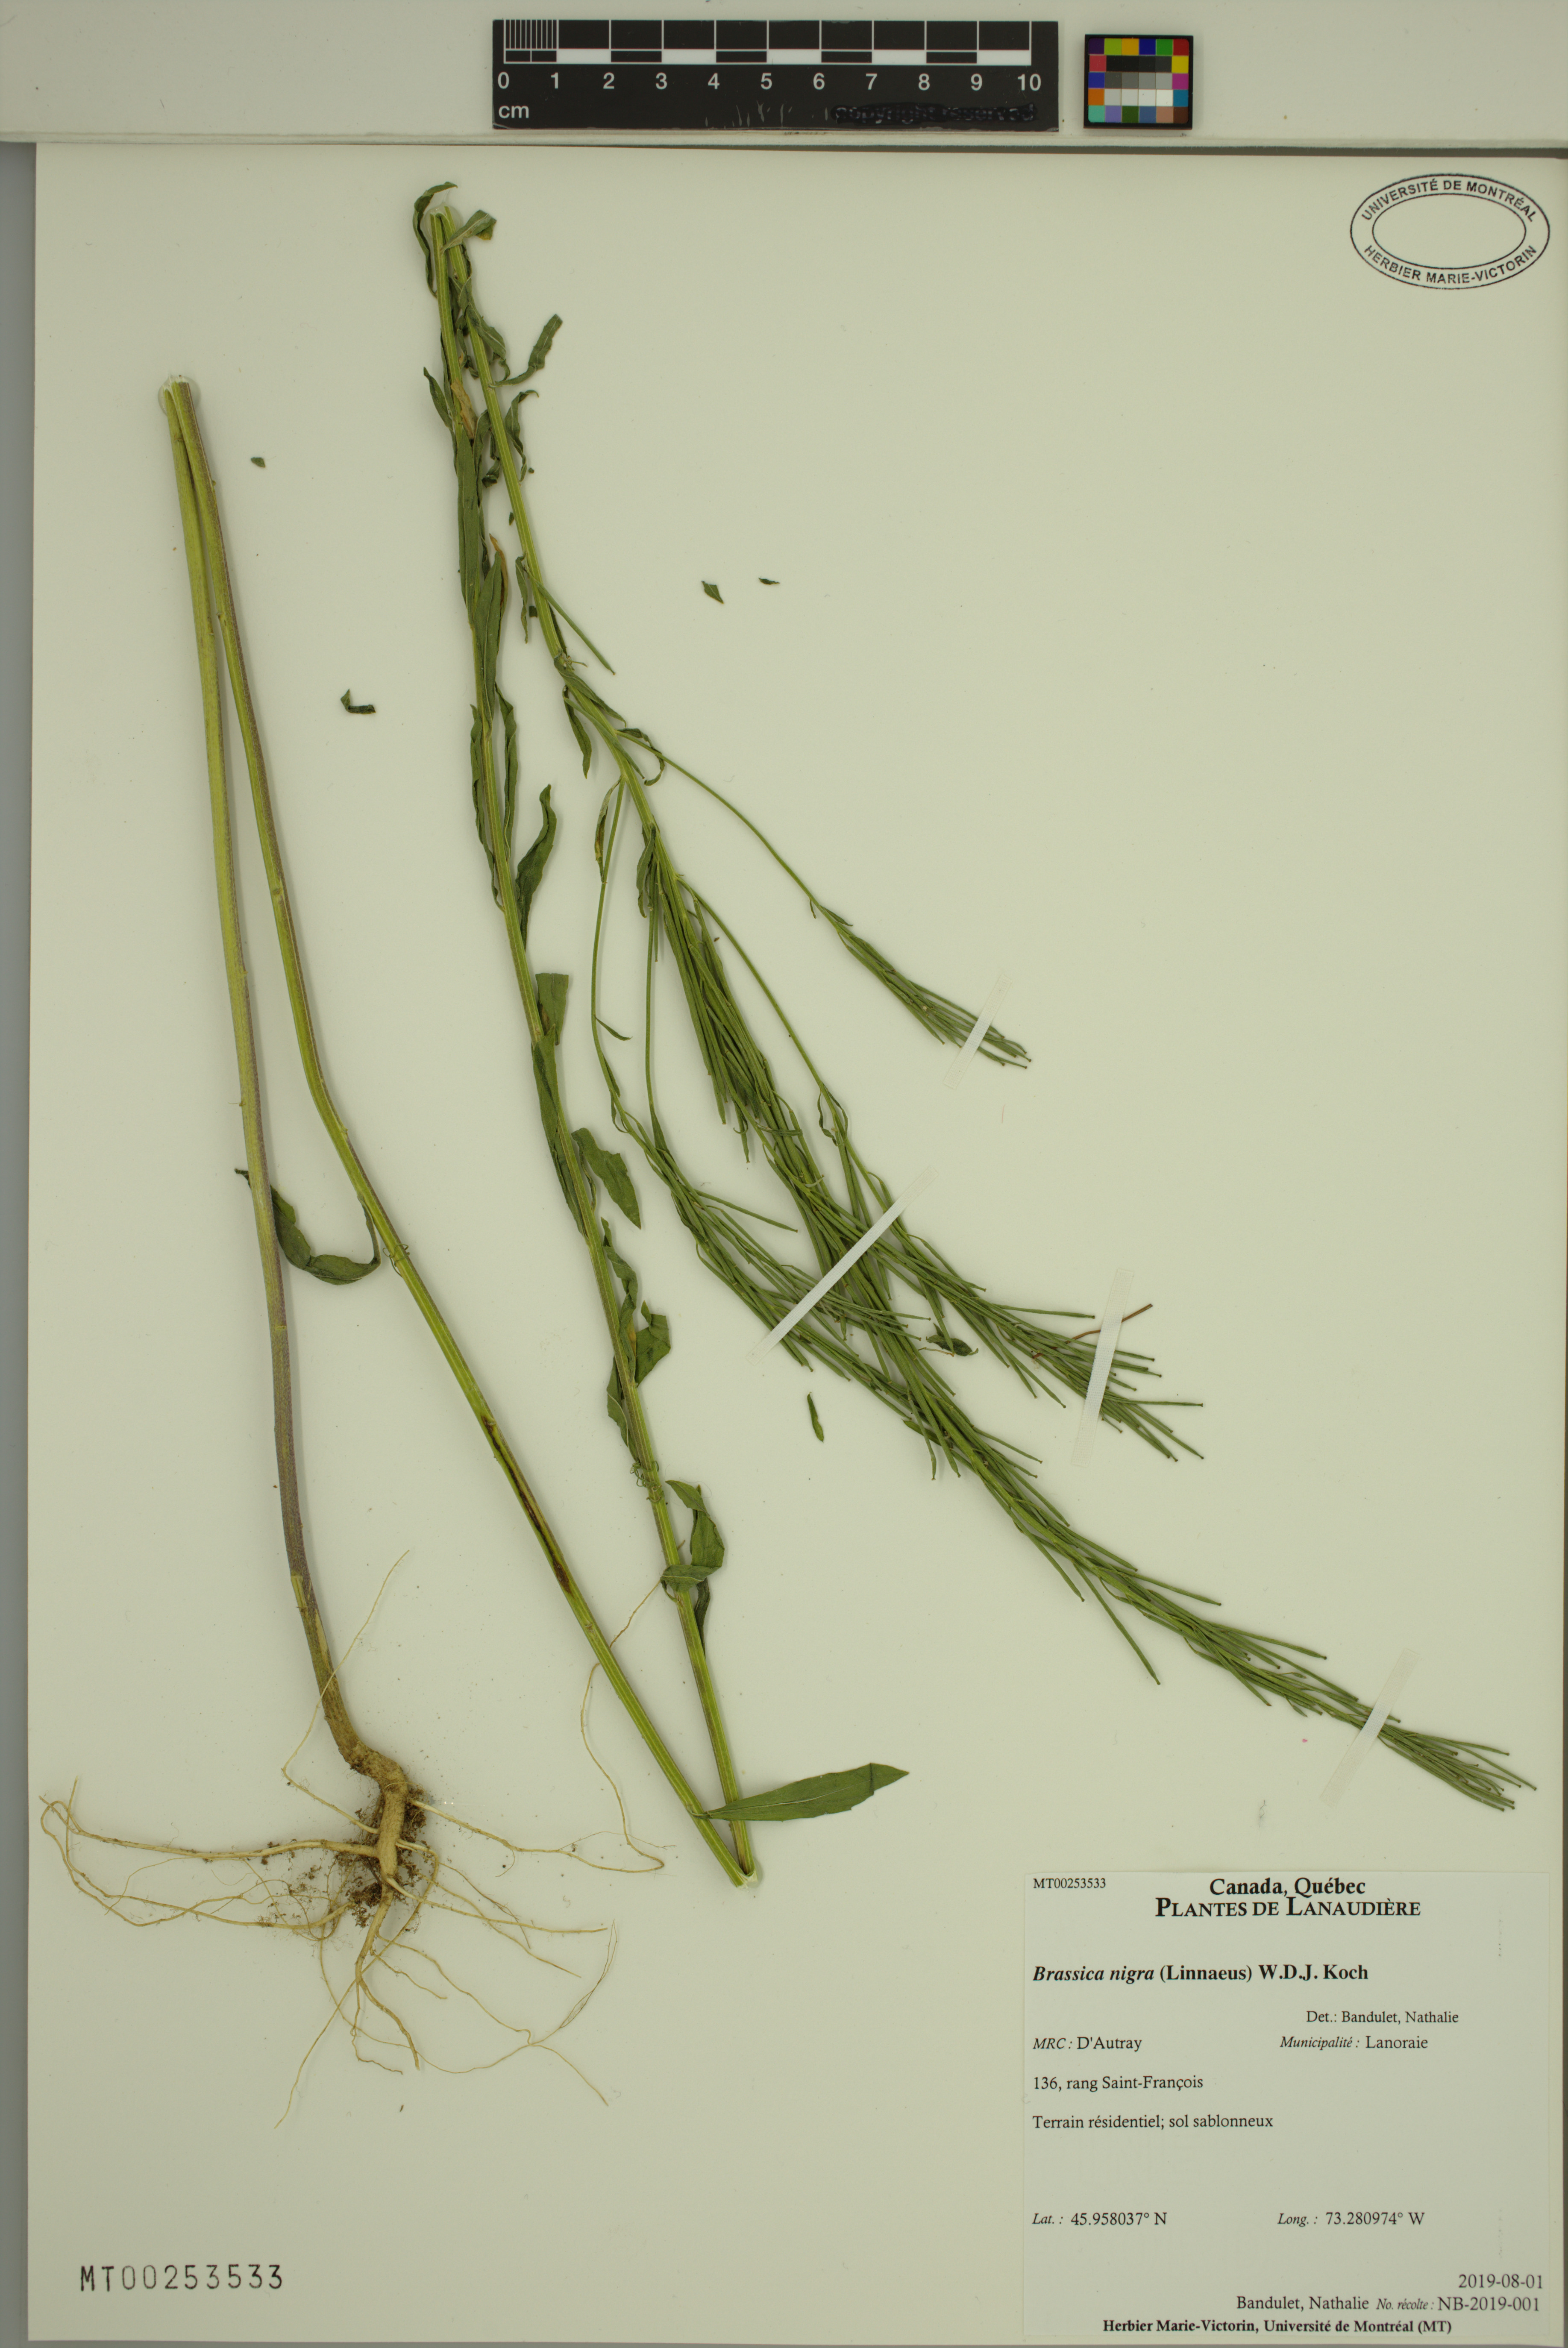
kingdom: Plantae
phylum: Tracheophyta
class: Magnoliopsida
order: Brassicales
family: Brassicaceae
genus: Brassica
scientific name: Brassica nigra
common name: Black mustard
